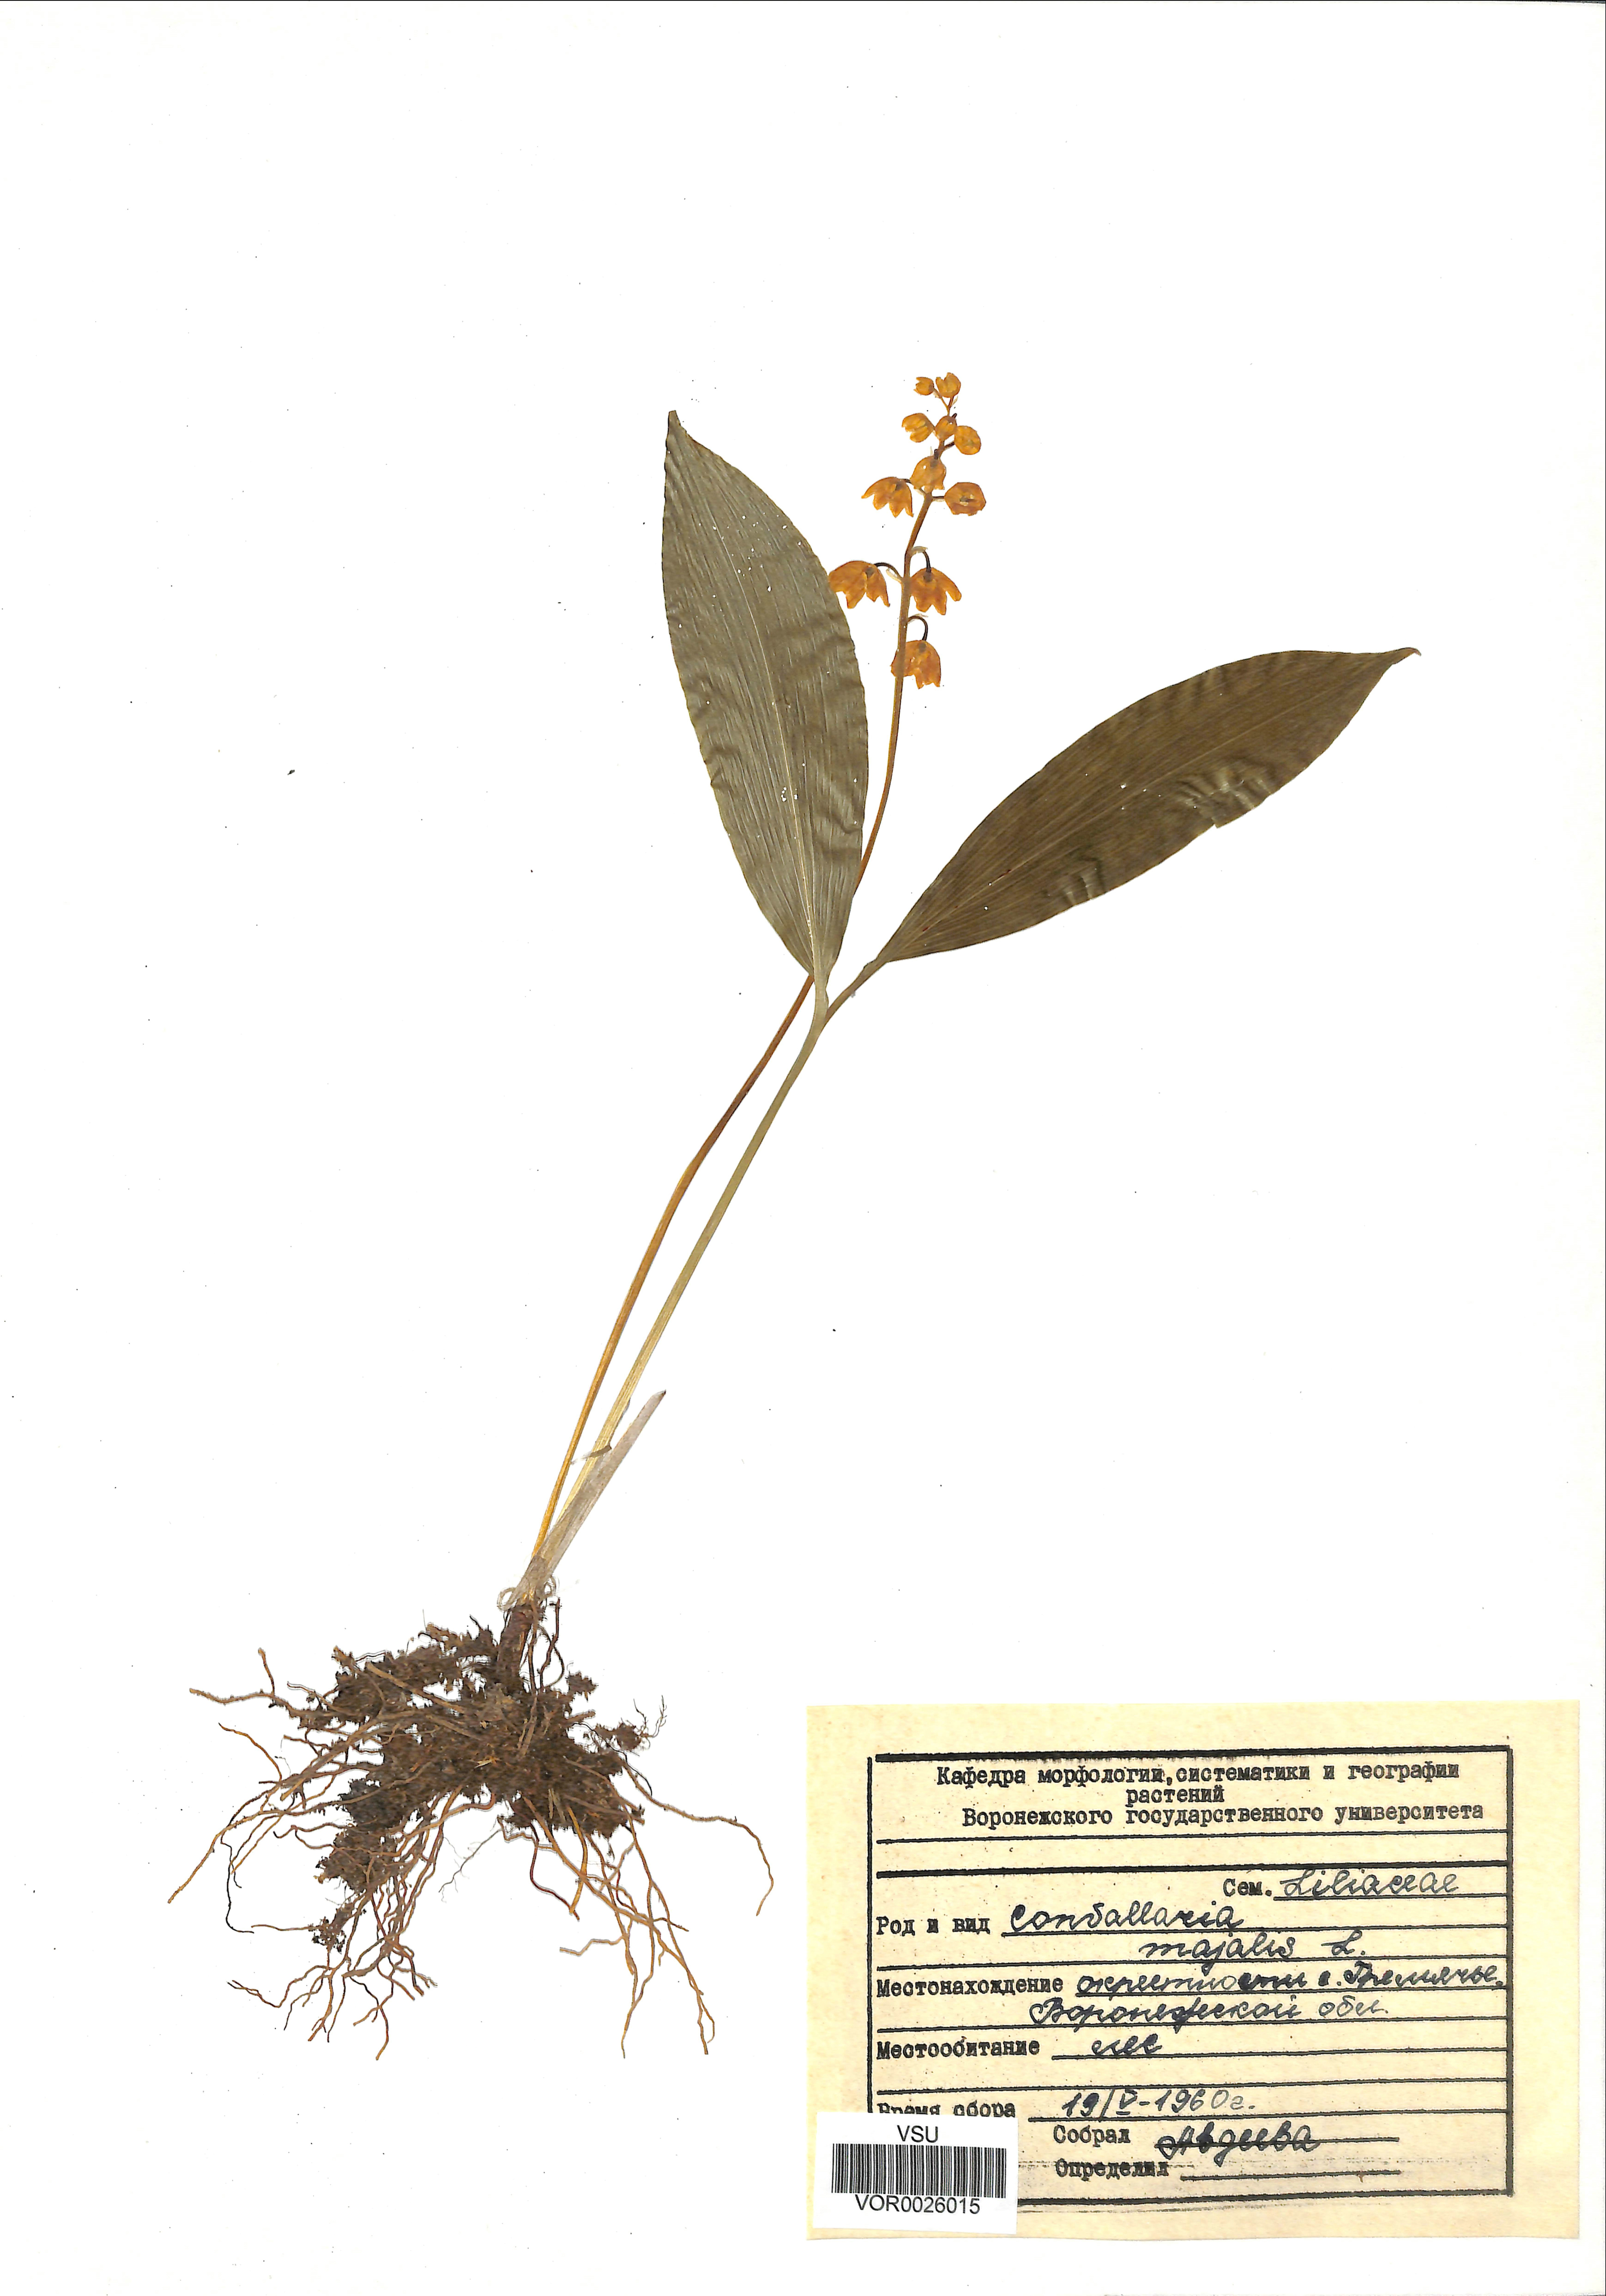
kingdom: Plantae
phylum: Tracheophyta
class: Liliopsida
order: Asparagales
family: Asparagaceae
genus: Convallaria
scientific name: Convallaria majalis
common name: Lily-of-the-valley
